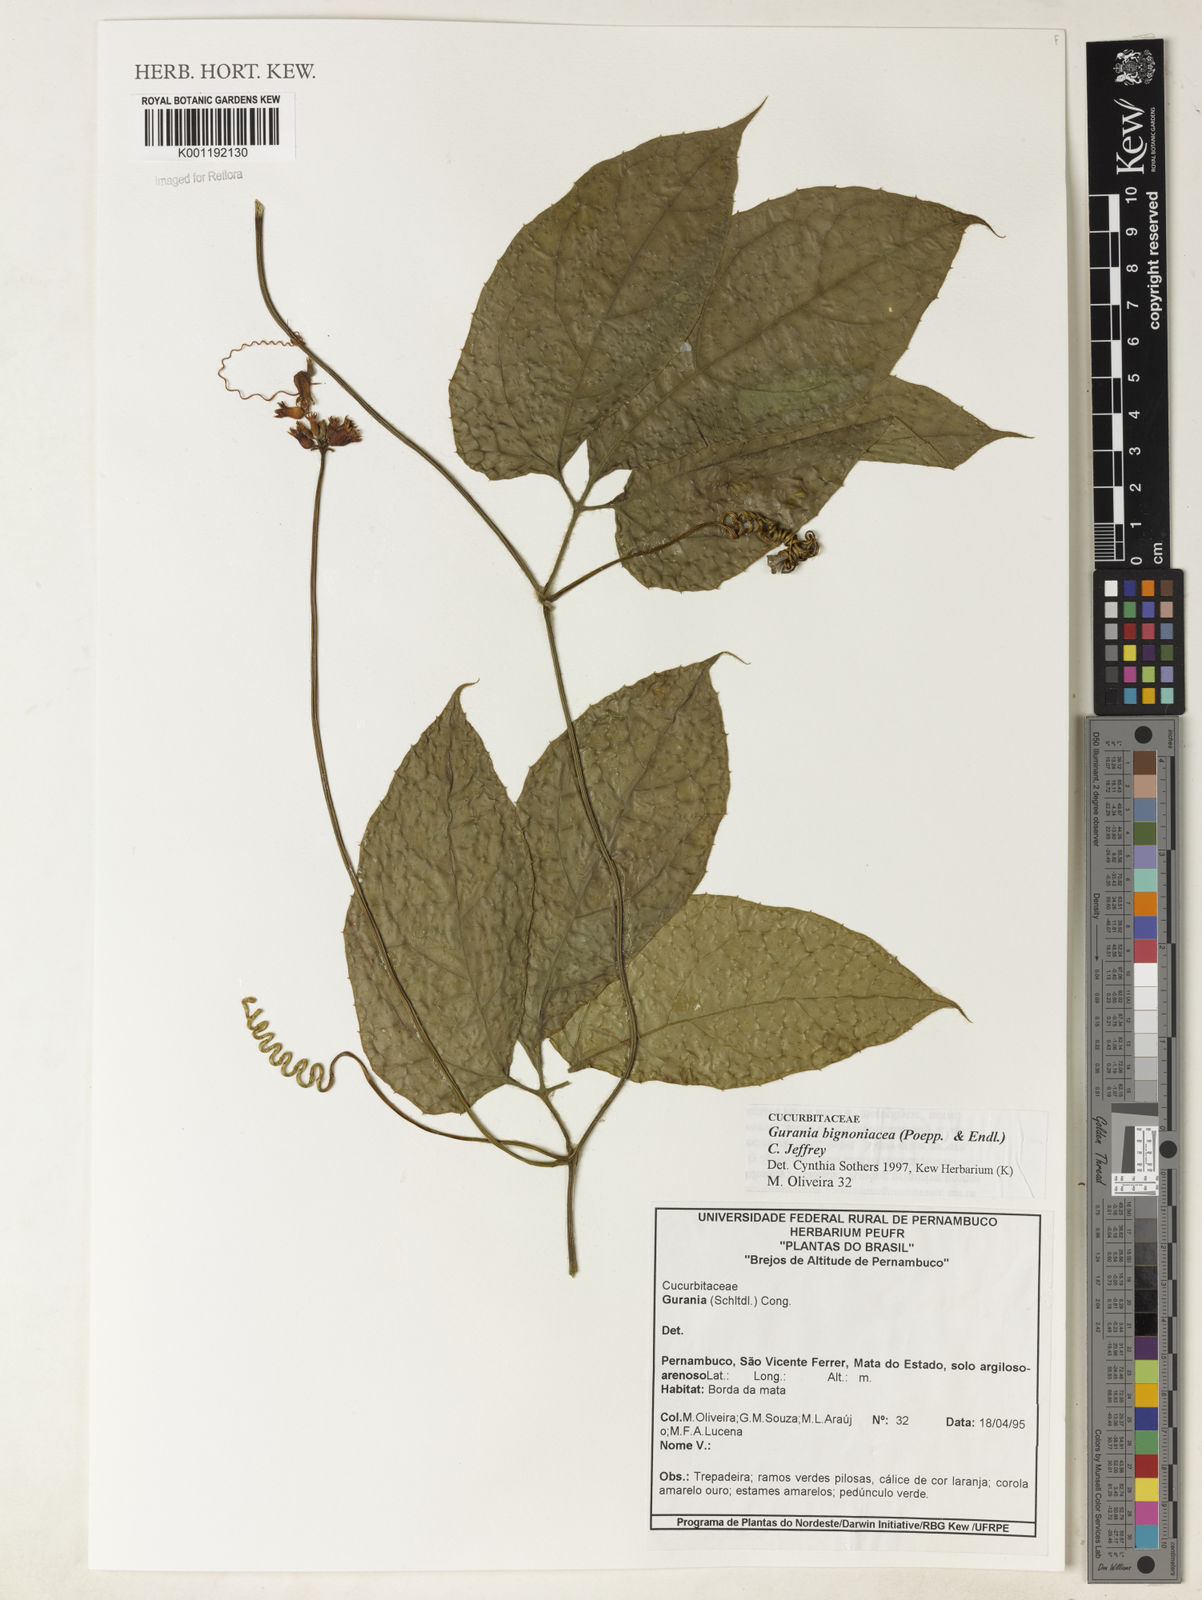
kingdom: Plantae
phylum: Tracheophyta
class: Magnoliopsida
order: Cucurbitales
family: Cucurbitaceae
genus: Gurania
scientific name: Gurania bignoniacea
